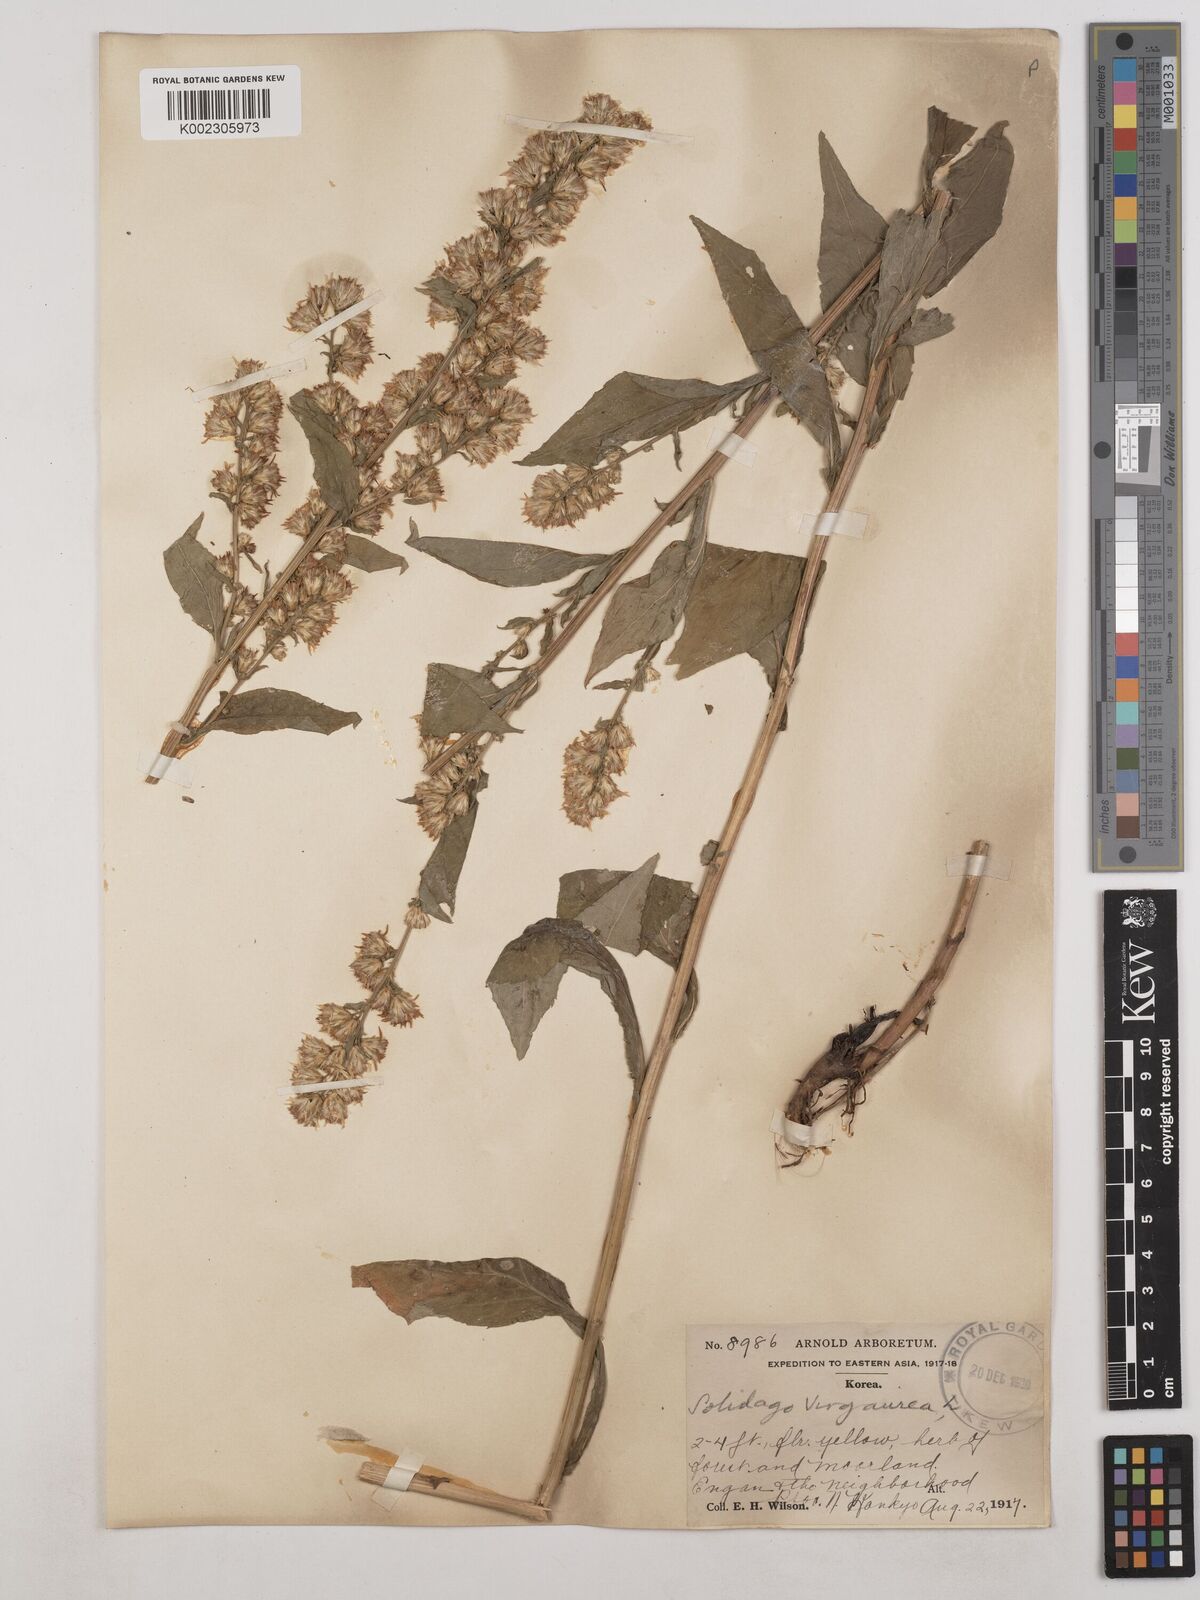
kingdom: Plantae
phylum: Tracheophyta
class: Magnoliopsida
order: Asterales
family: Asteraceae
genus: Solidago
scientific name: Solidago virgaurea
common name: Goldenrod
